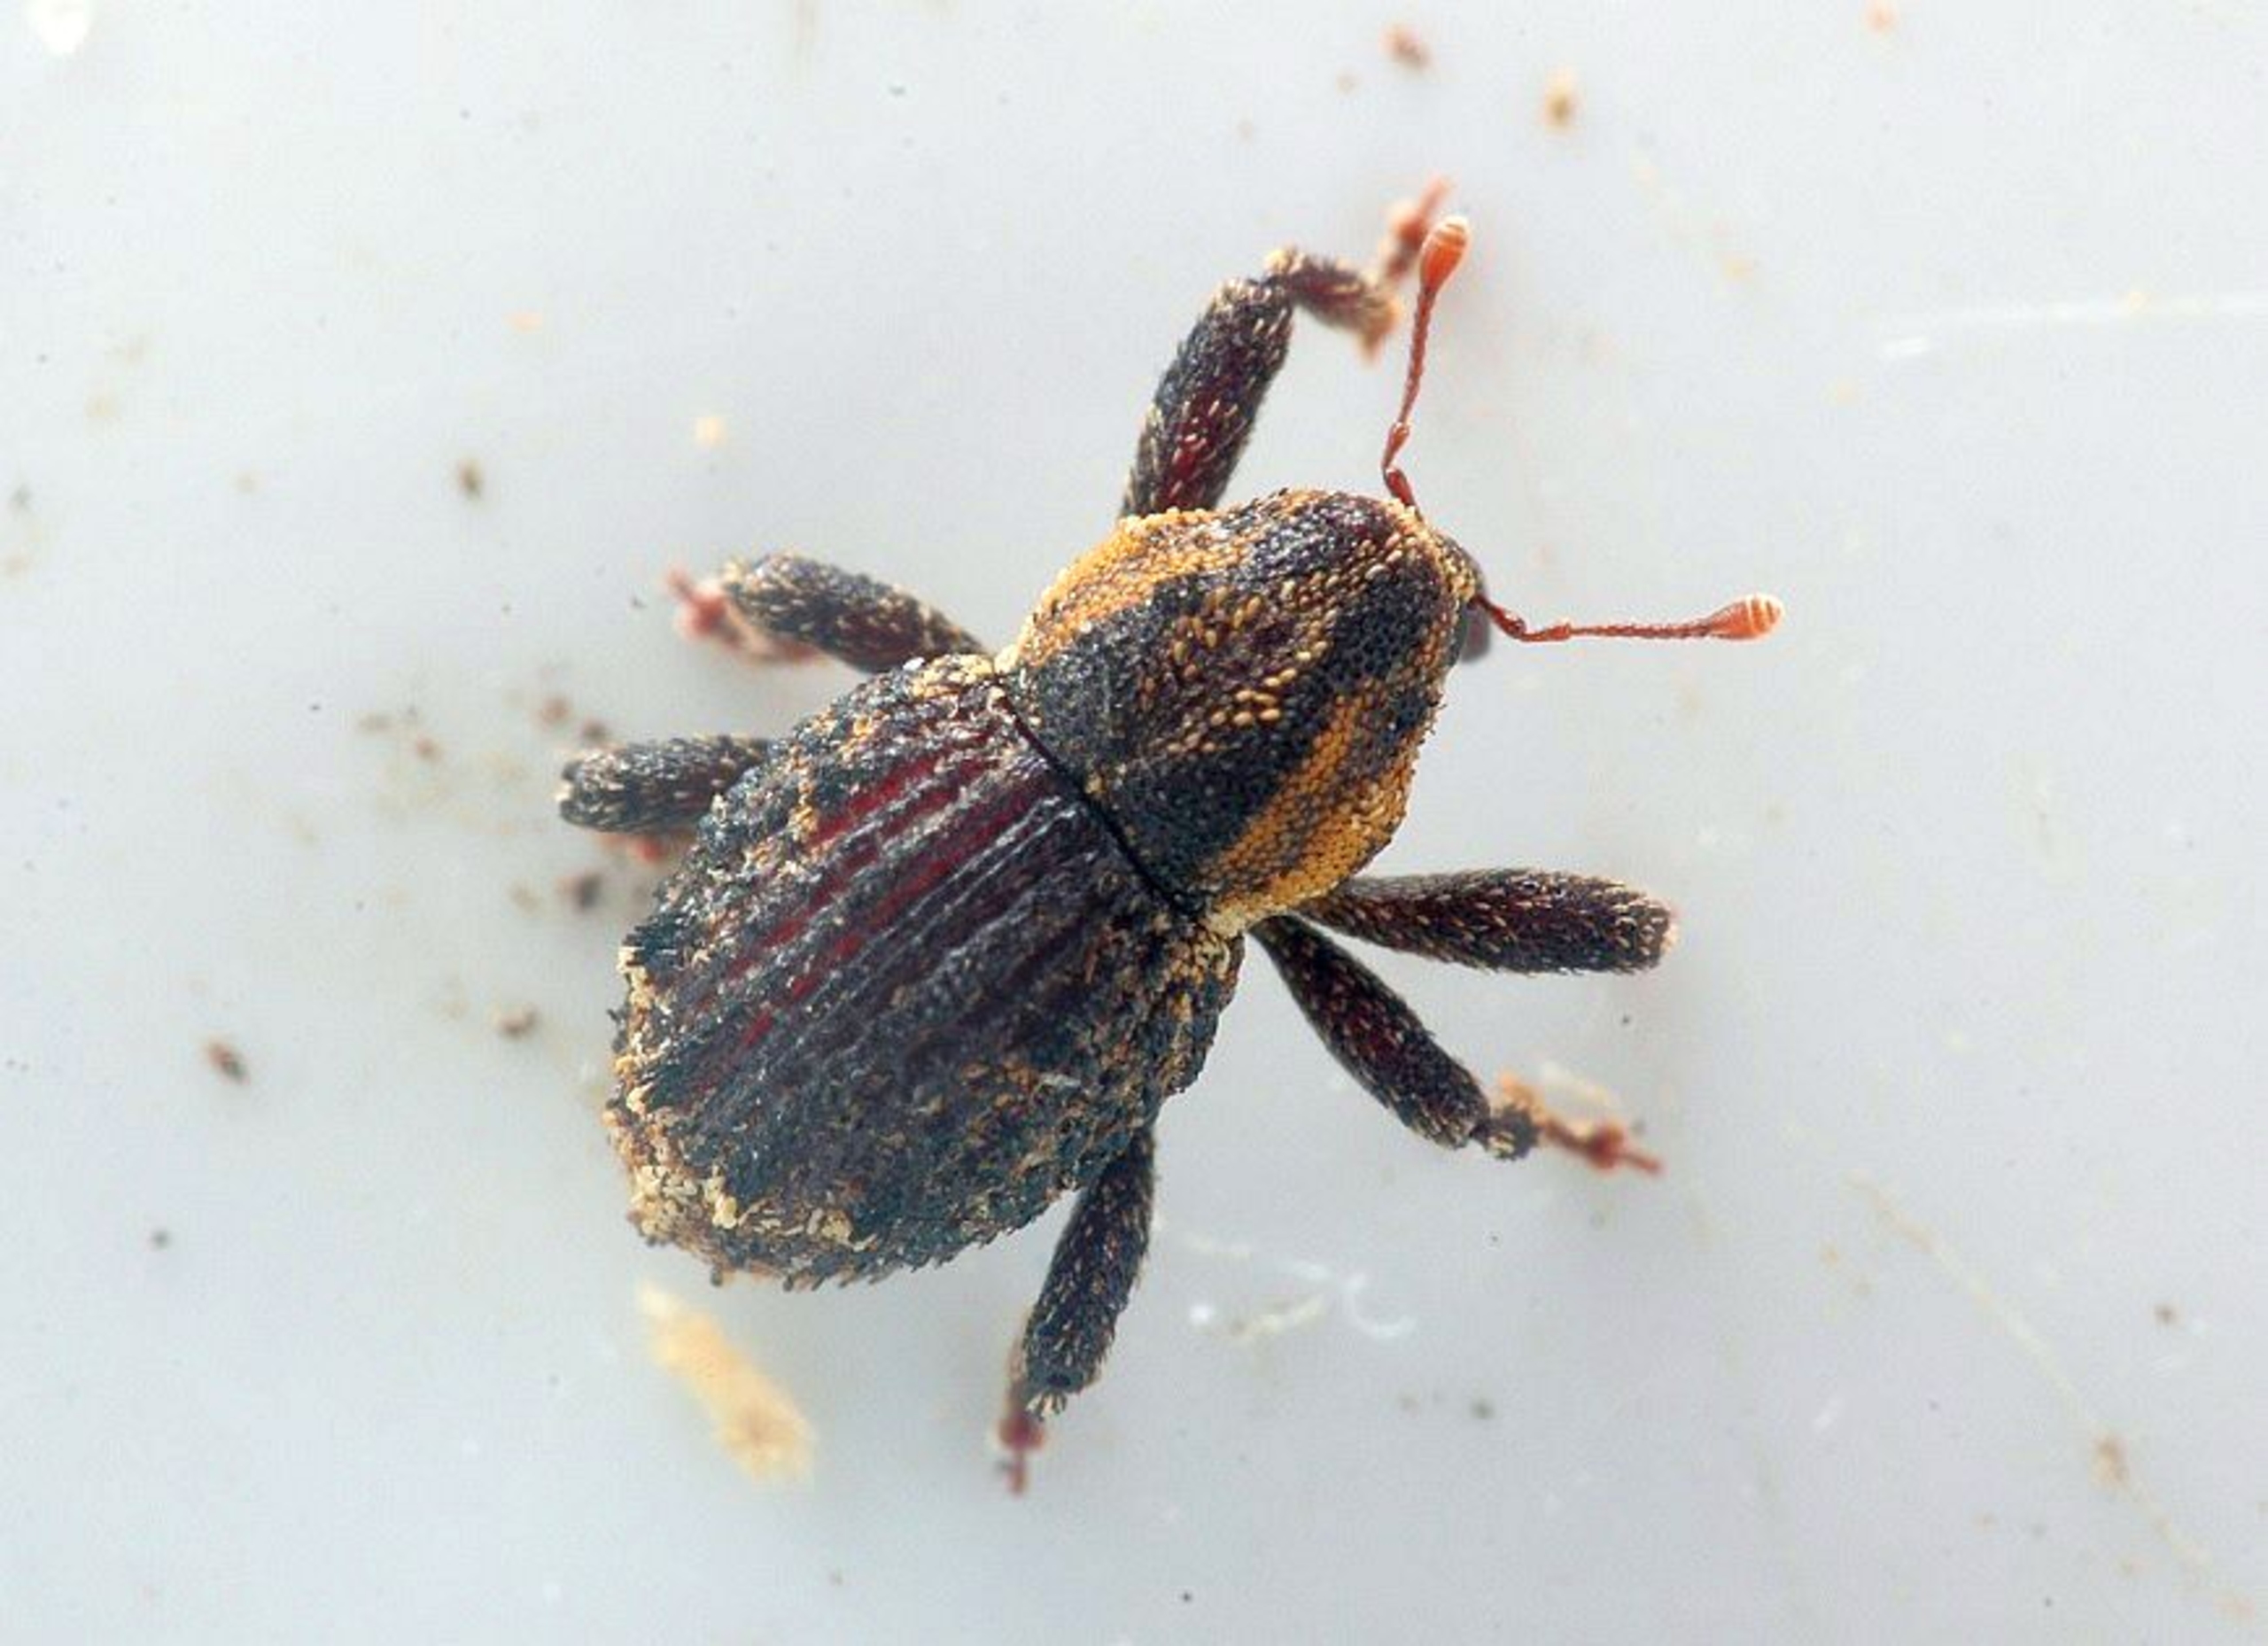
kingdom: Animalia
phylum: Arthropoda
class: Insecta
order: Coleoptera
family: Curculionidae
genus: Acalles
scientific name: Acalles camelus
